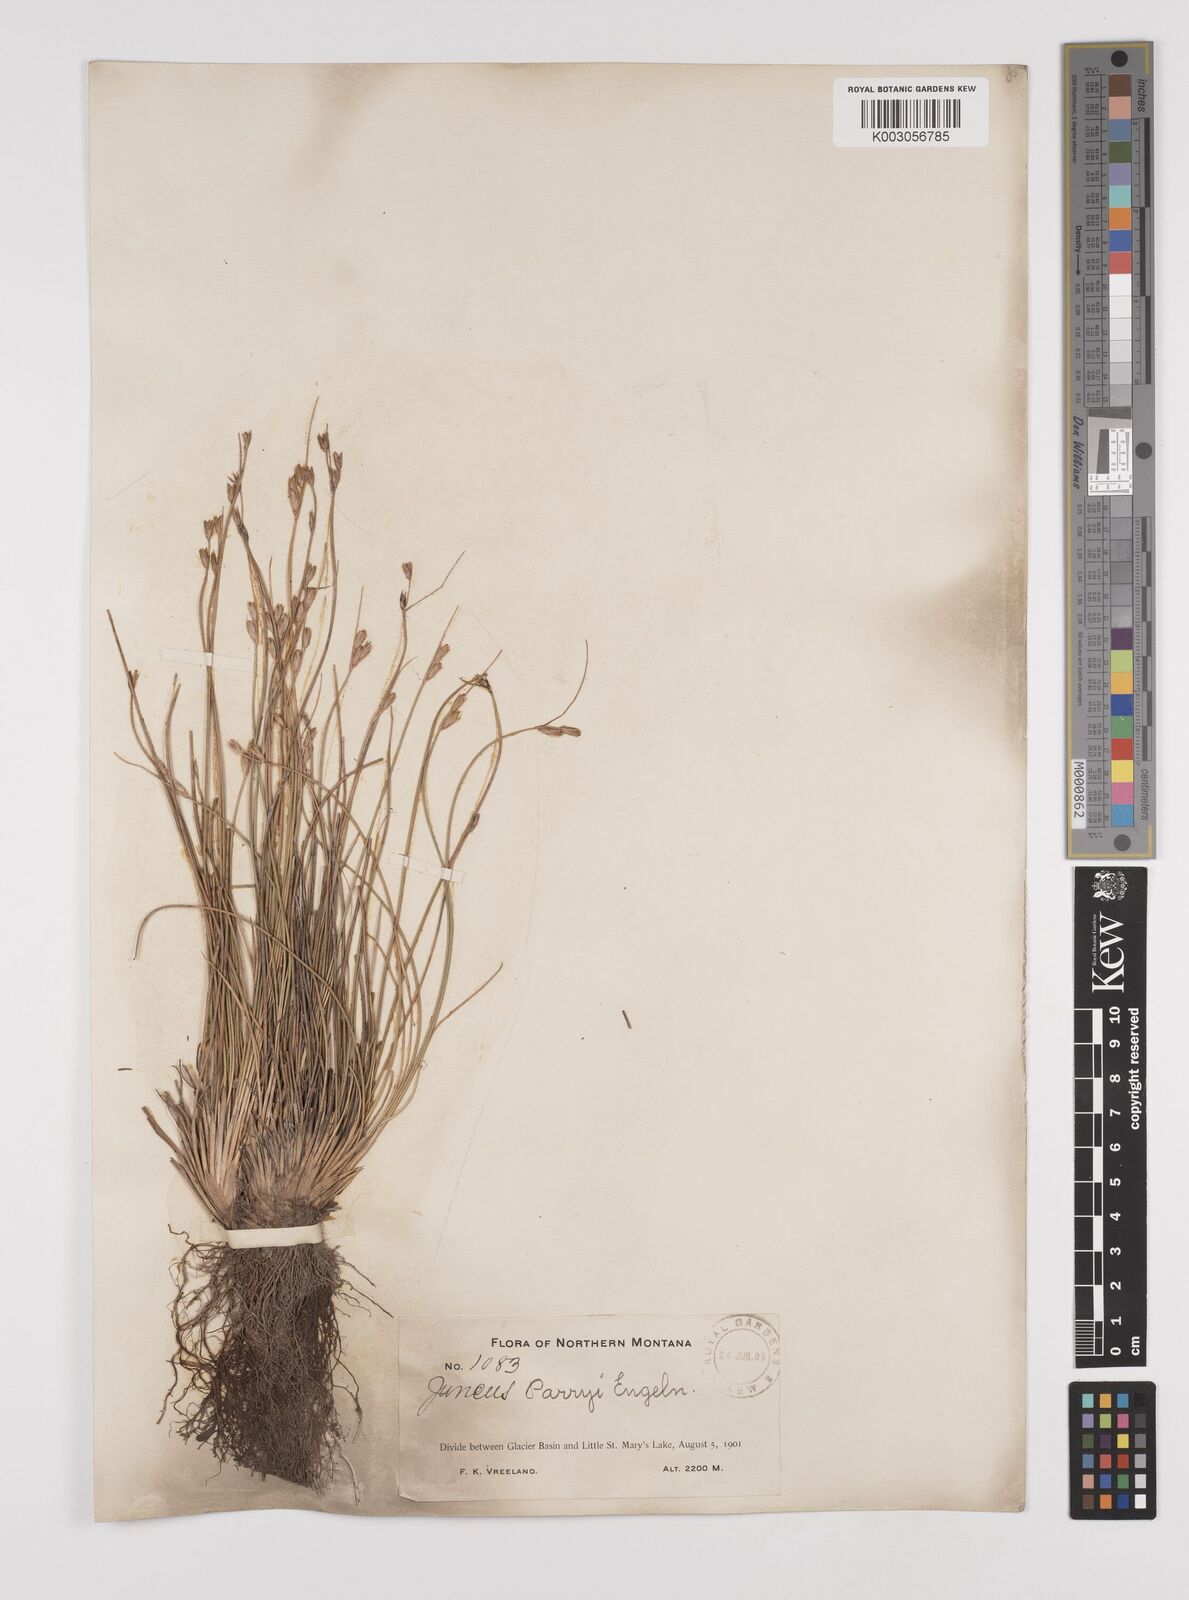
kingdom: Plantae
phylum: Tracheophyta
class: Liliopsida
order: Poales
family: Juncaceae
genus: Juncus
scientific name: Juncus parryi
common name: Parry's rush
